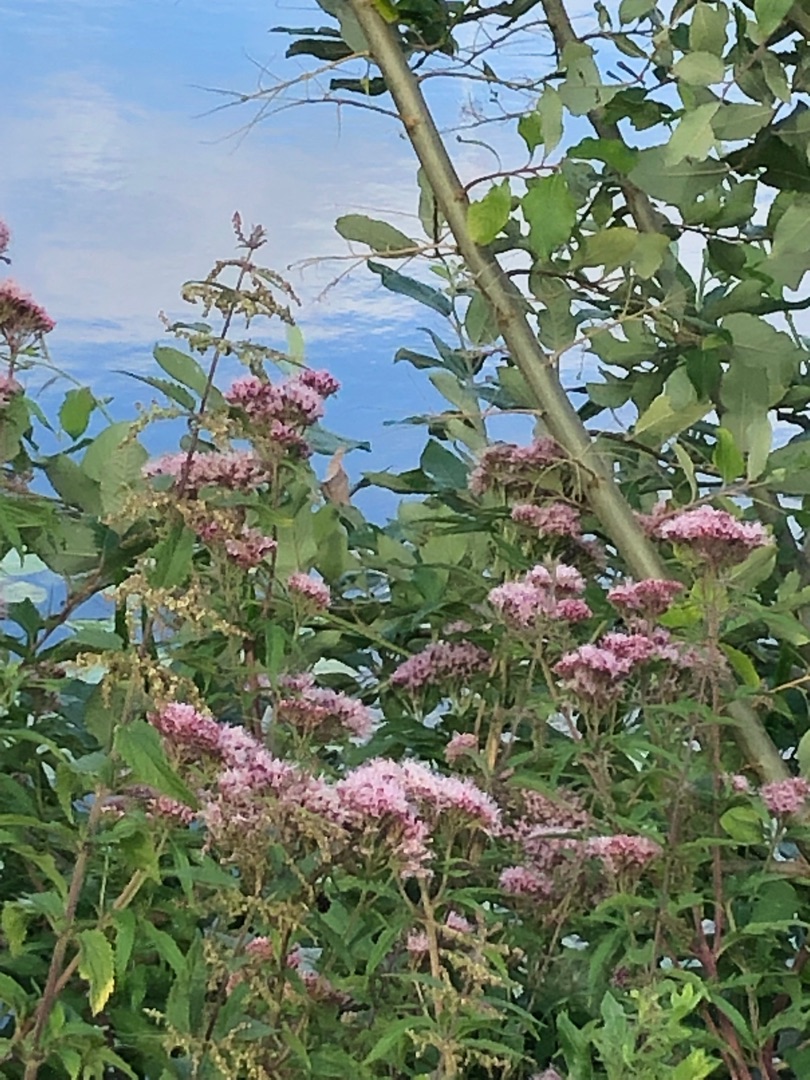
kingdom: Plantae
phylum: Tracheophyta
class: Magnoliopsida
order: Asterales
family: Asteraceae
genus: Eupatorium
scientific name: Eupatorium cannabinum
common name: Hjortetrøst
